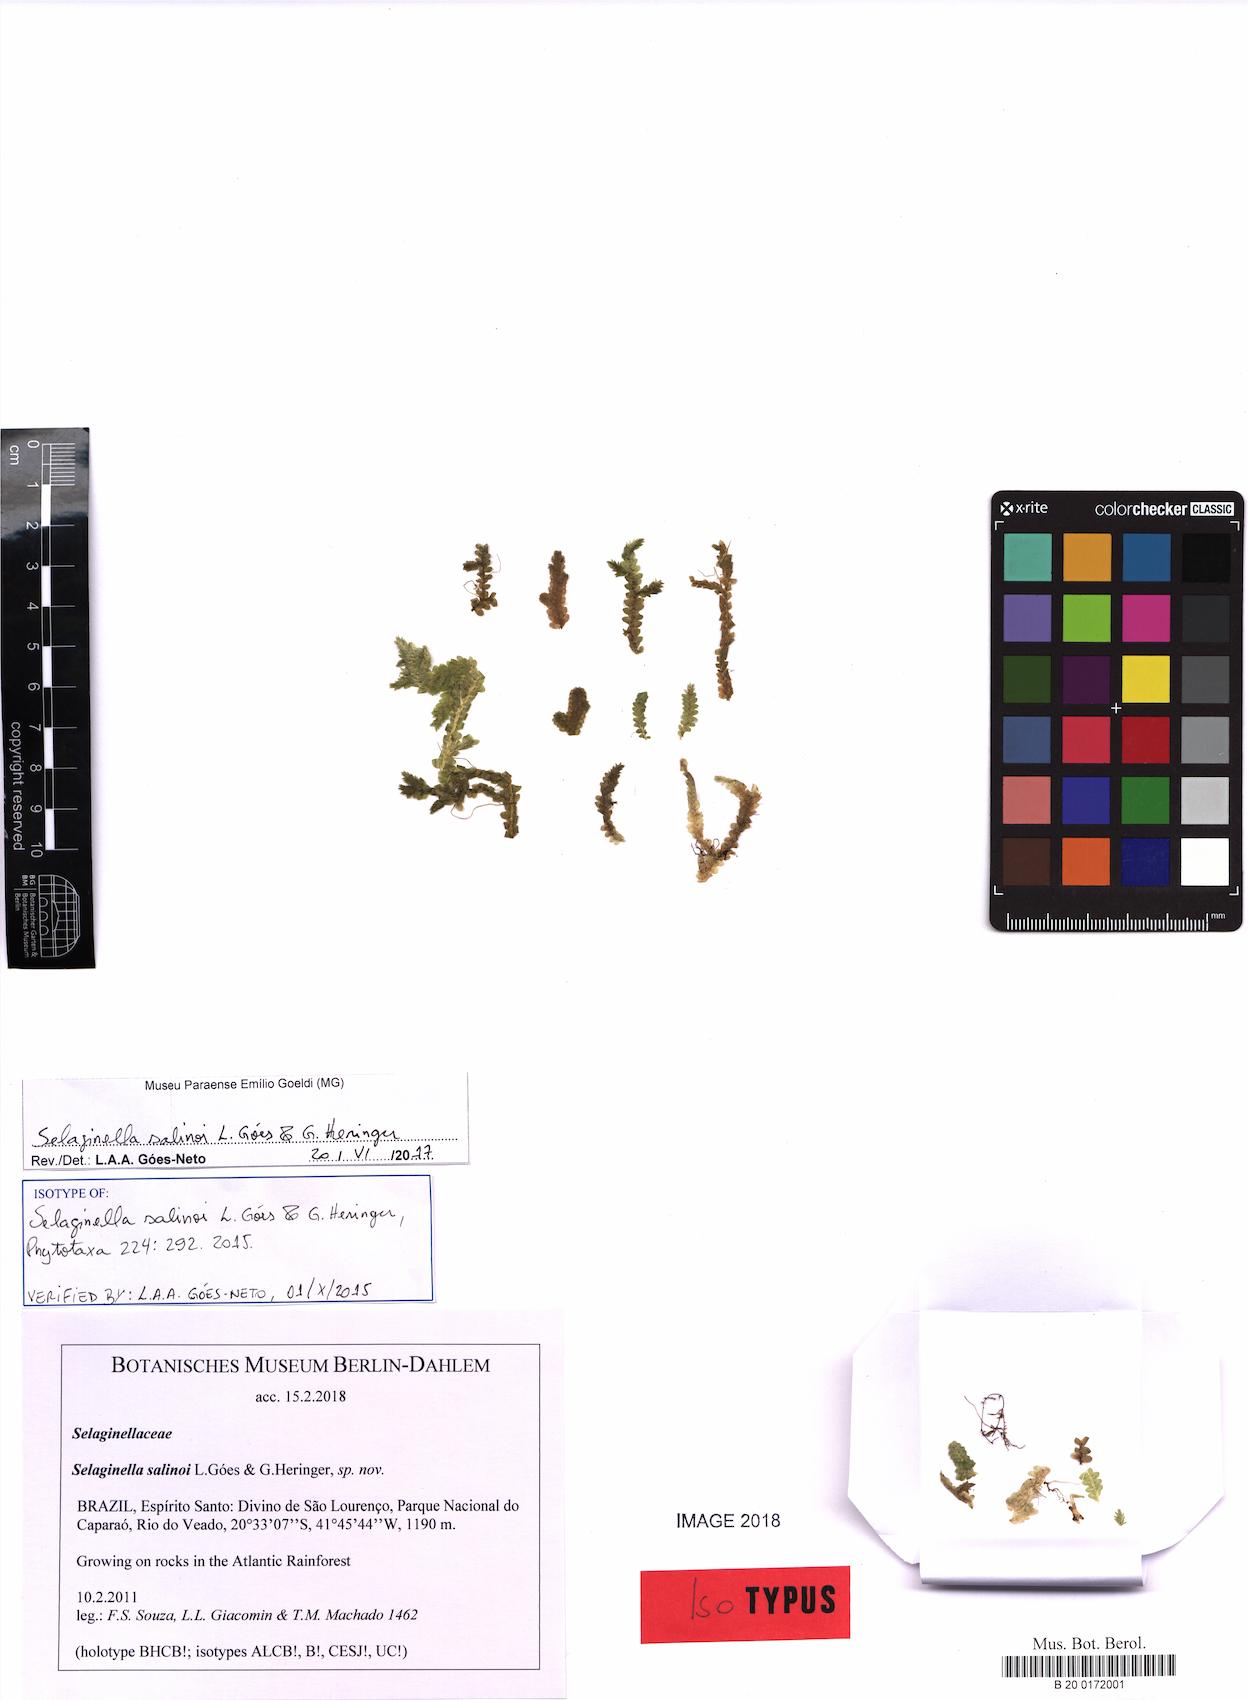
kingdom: Plantae
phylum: Tracheophyta
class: Lycopodiopsida
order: Selaginellales
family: Selaginellaceae
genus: Selaginella
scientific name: Selaginella salinoi
